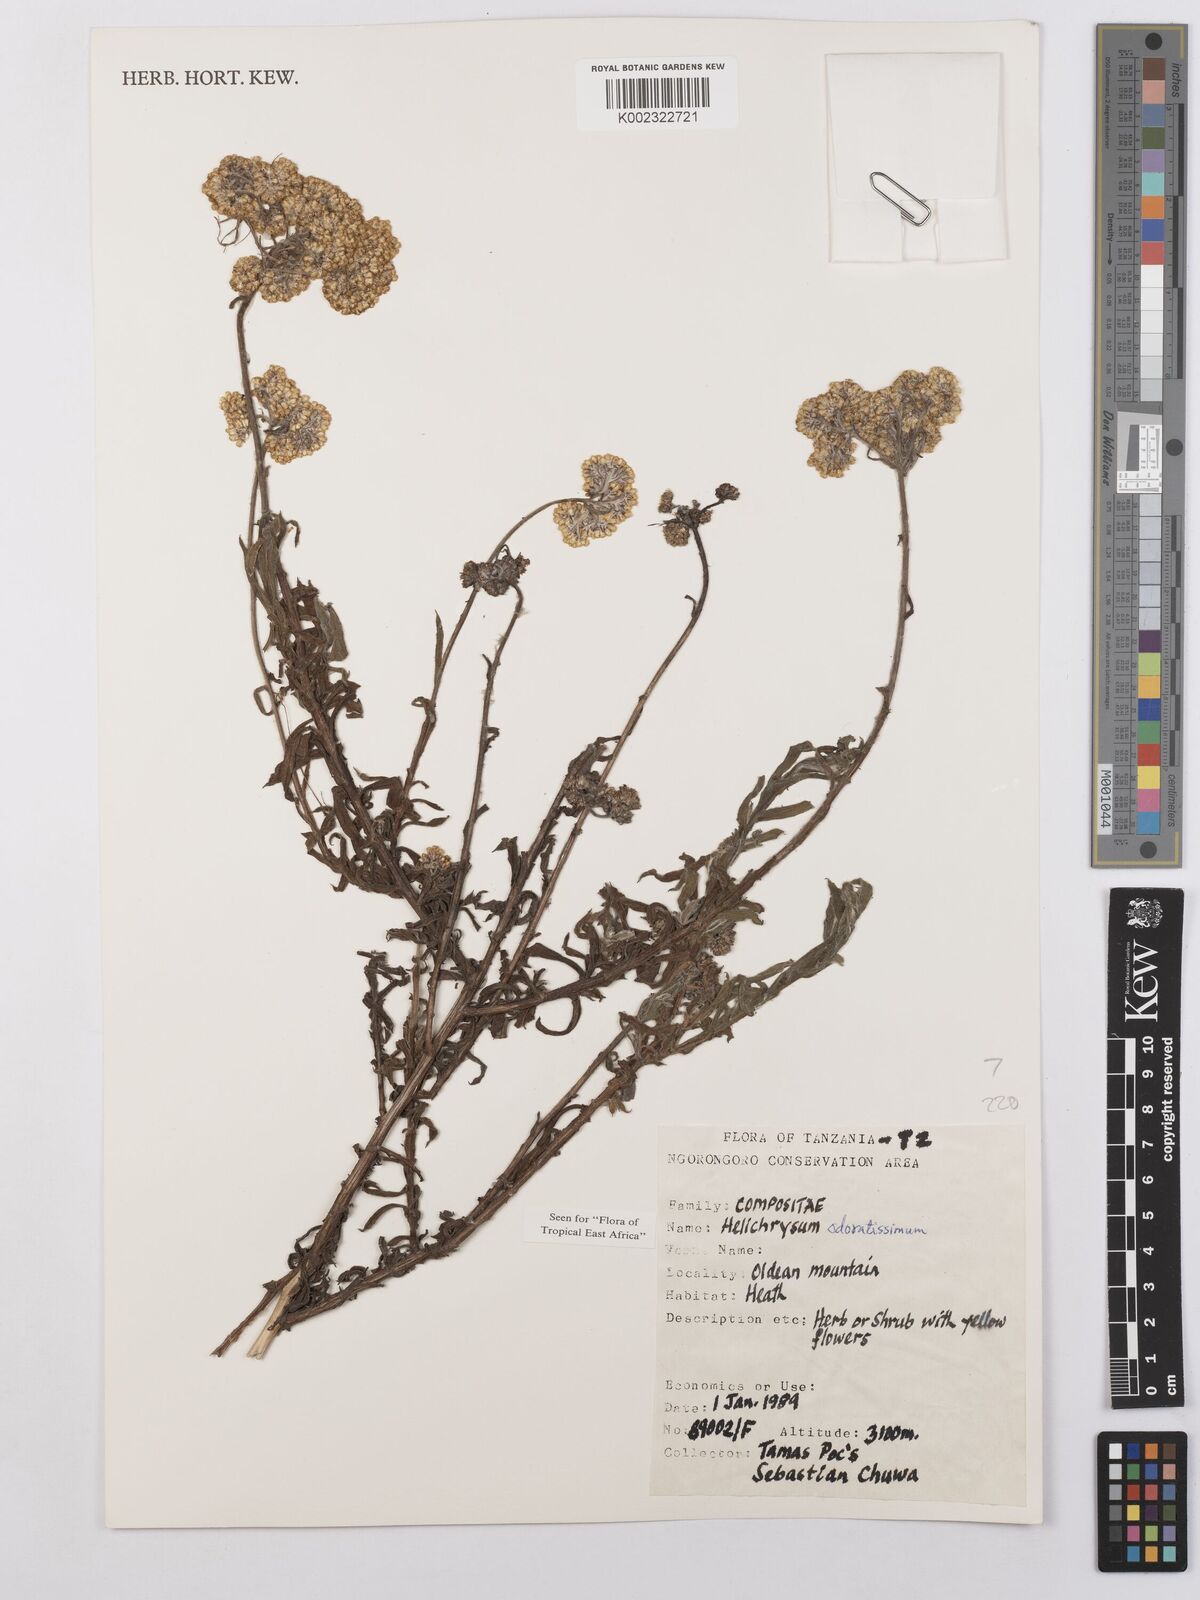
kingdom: Plantae
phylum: Tracheophyta
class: Magnoliopsida
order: Asterales
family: Asteraceae
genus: Helichrysum
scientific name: Helichrysum odoratissimum
